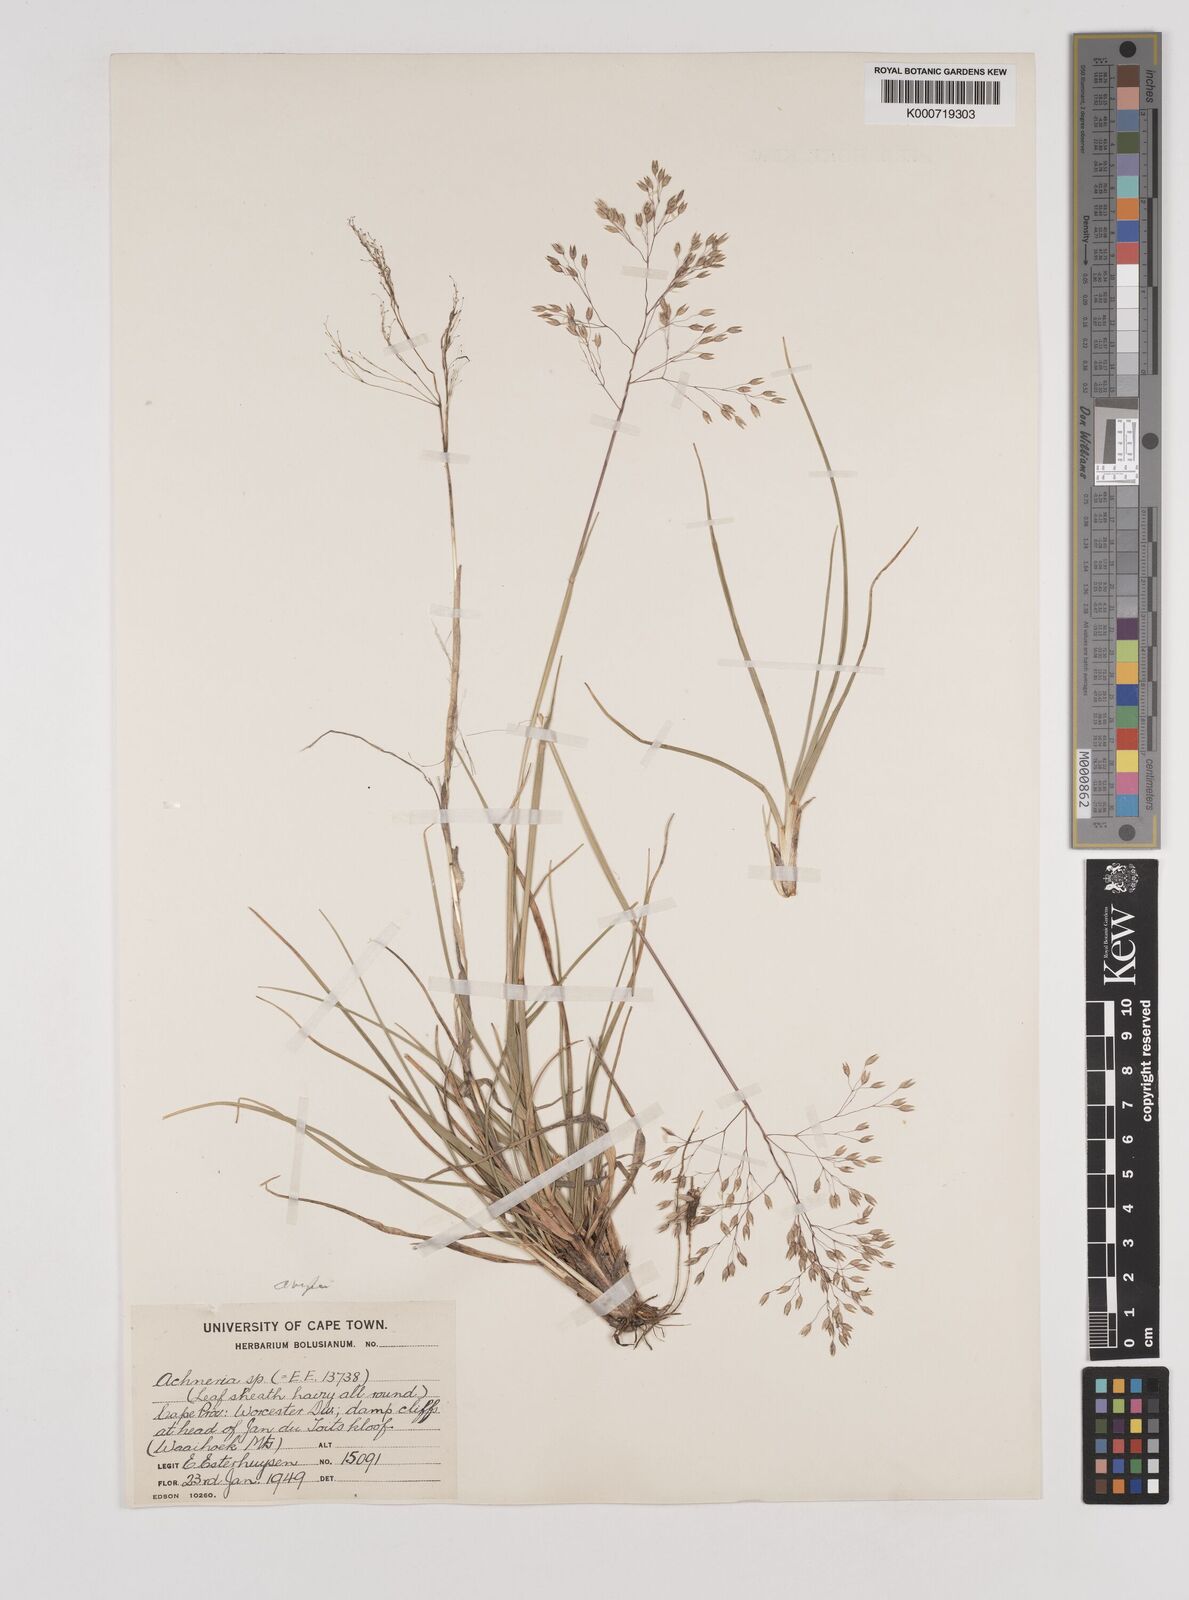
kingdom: Plantae
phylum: Tracheophyta
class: Liliopsida
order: Poales
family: Poaceae
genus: Pentameris
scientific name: Pentameris ampla
